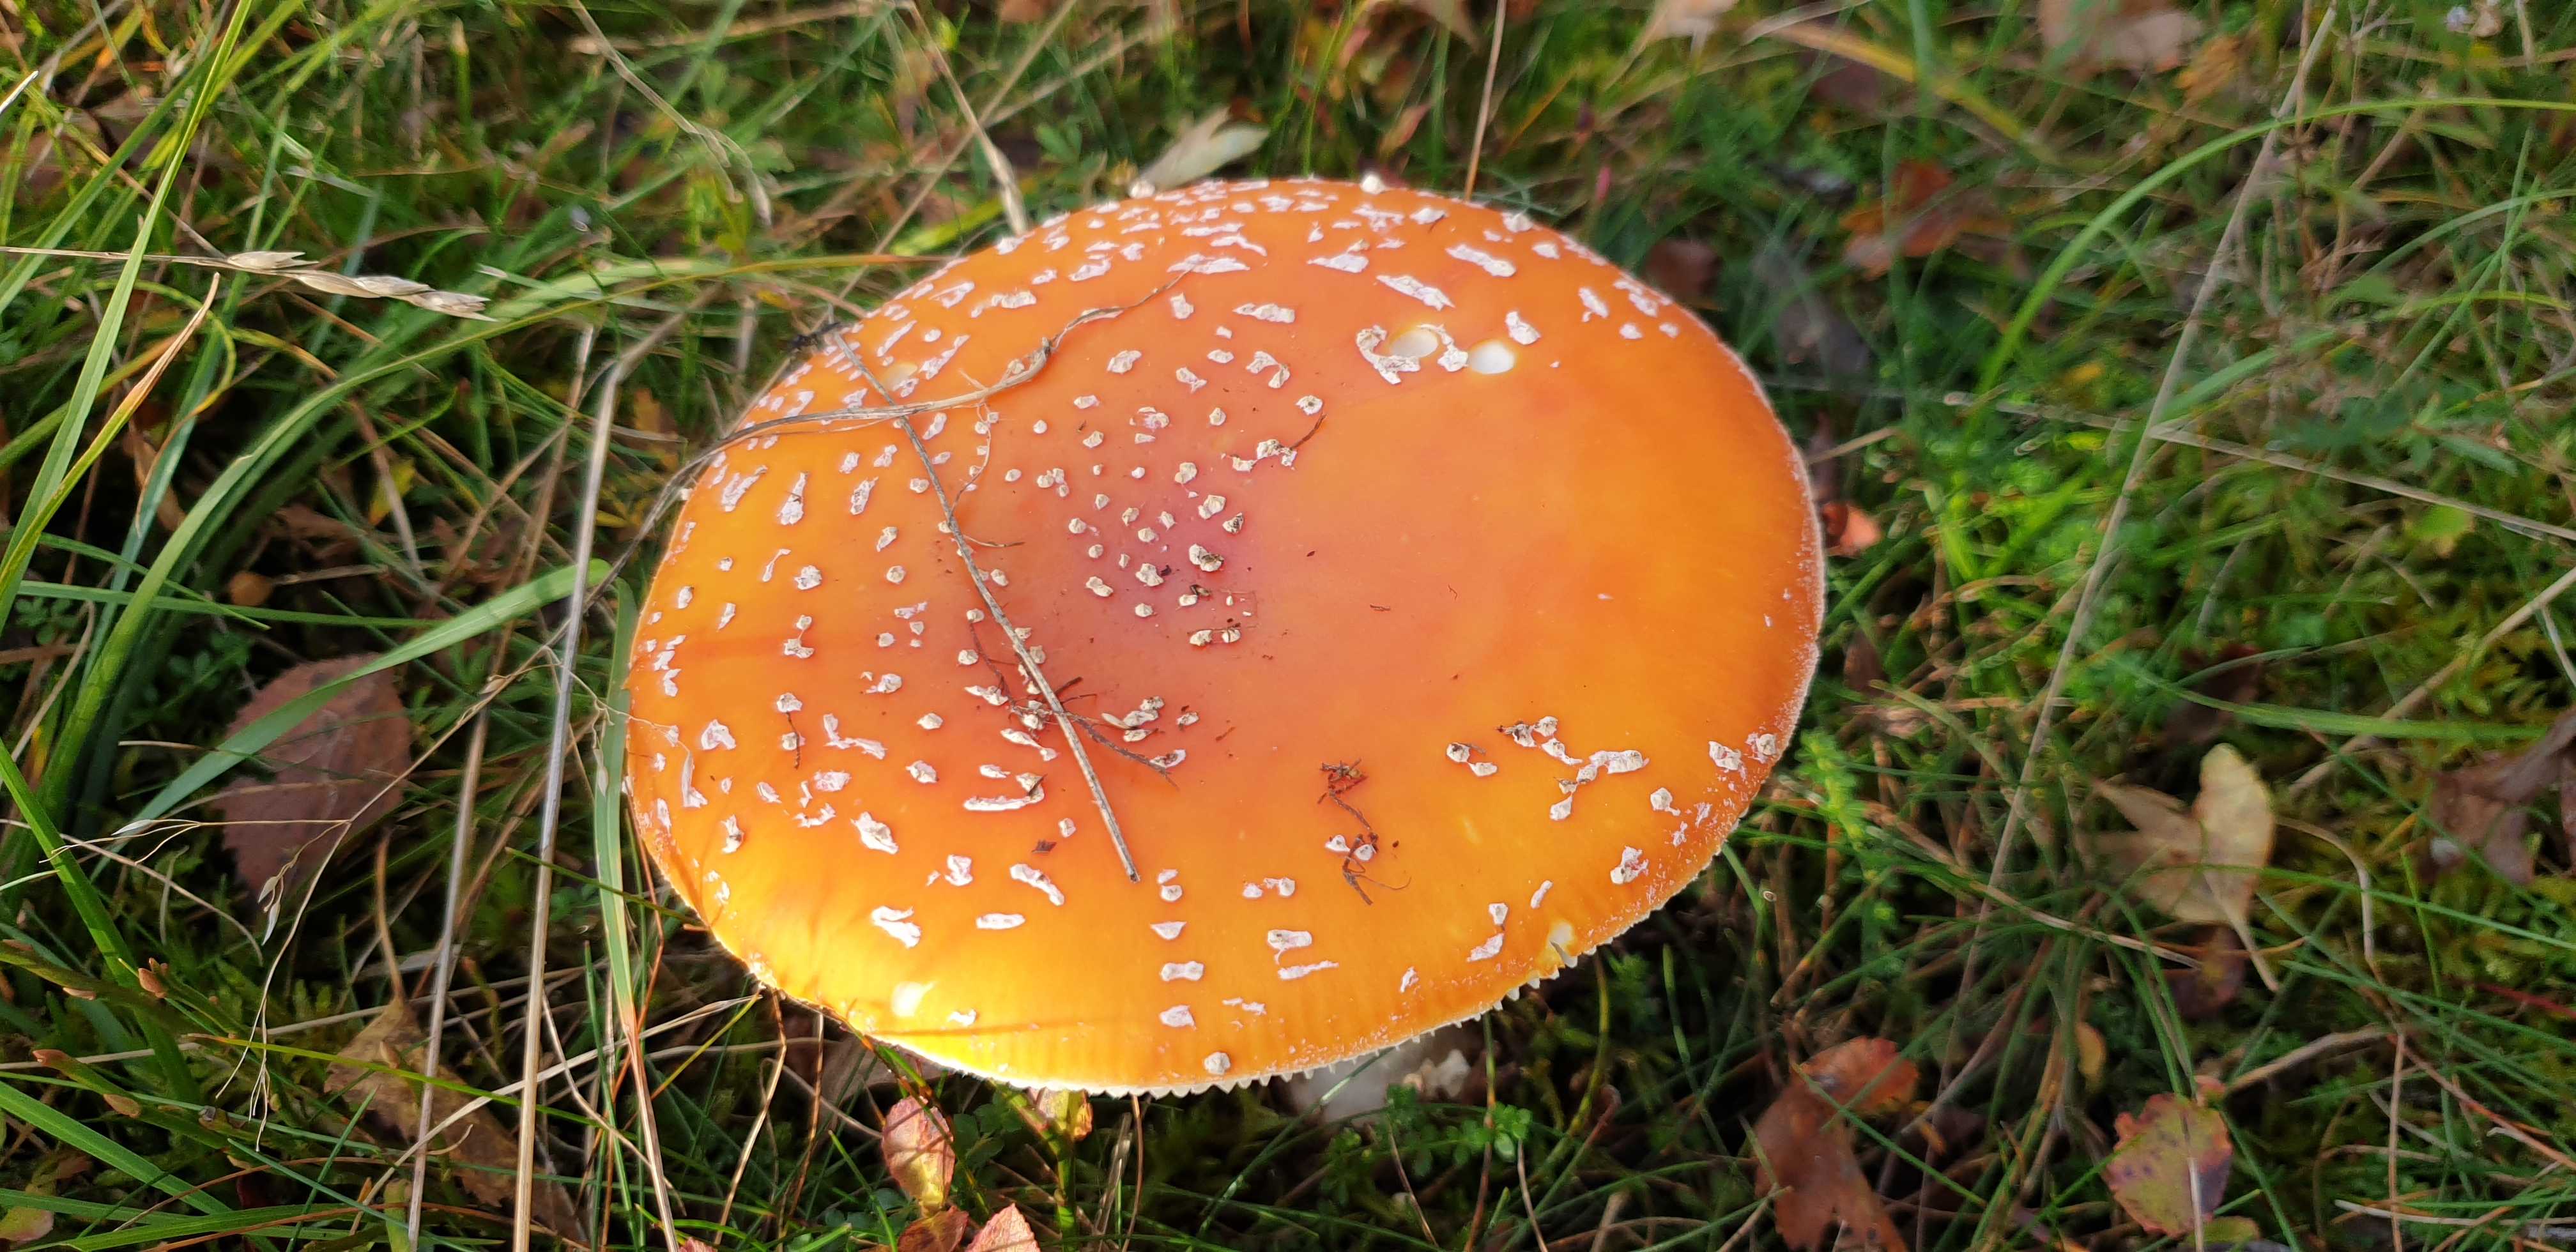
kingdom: Fungi
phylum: Basidiomycota
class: Agaricomycetes
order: Agaricales
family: Amanitaceae
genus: Amanita
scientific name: Amanita muscaria
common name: rød fluesvamp
